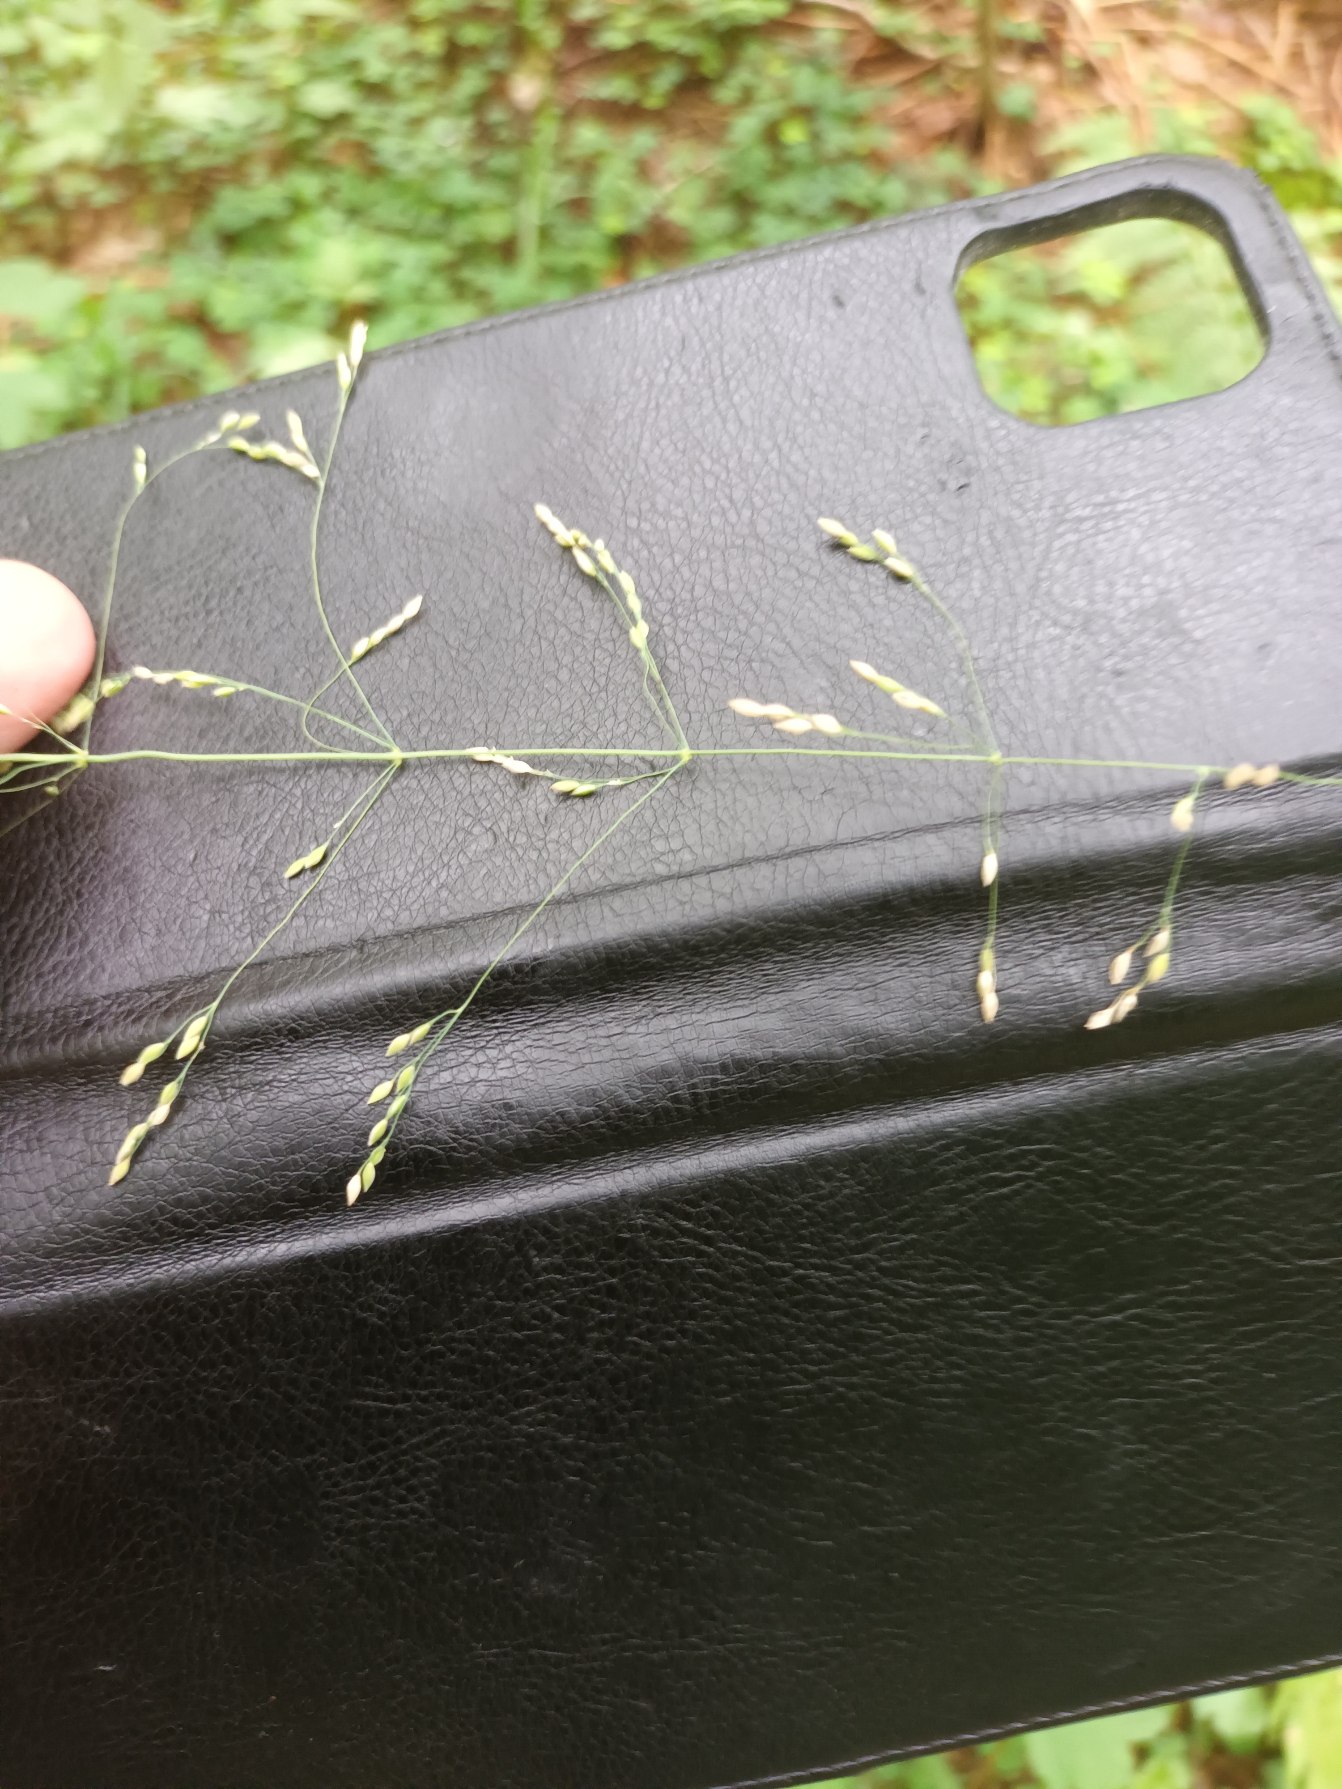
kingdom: Plantae
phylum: Tracheophyta
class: Liliopsida
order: Poales
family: Poaceae
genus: Milium
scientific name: Milium effusum
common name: Miliegræs
